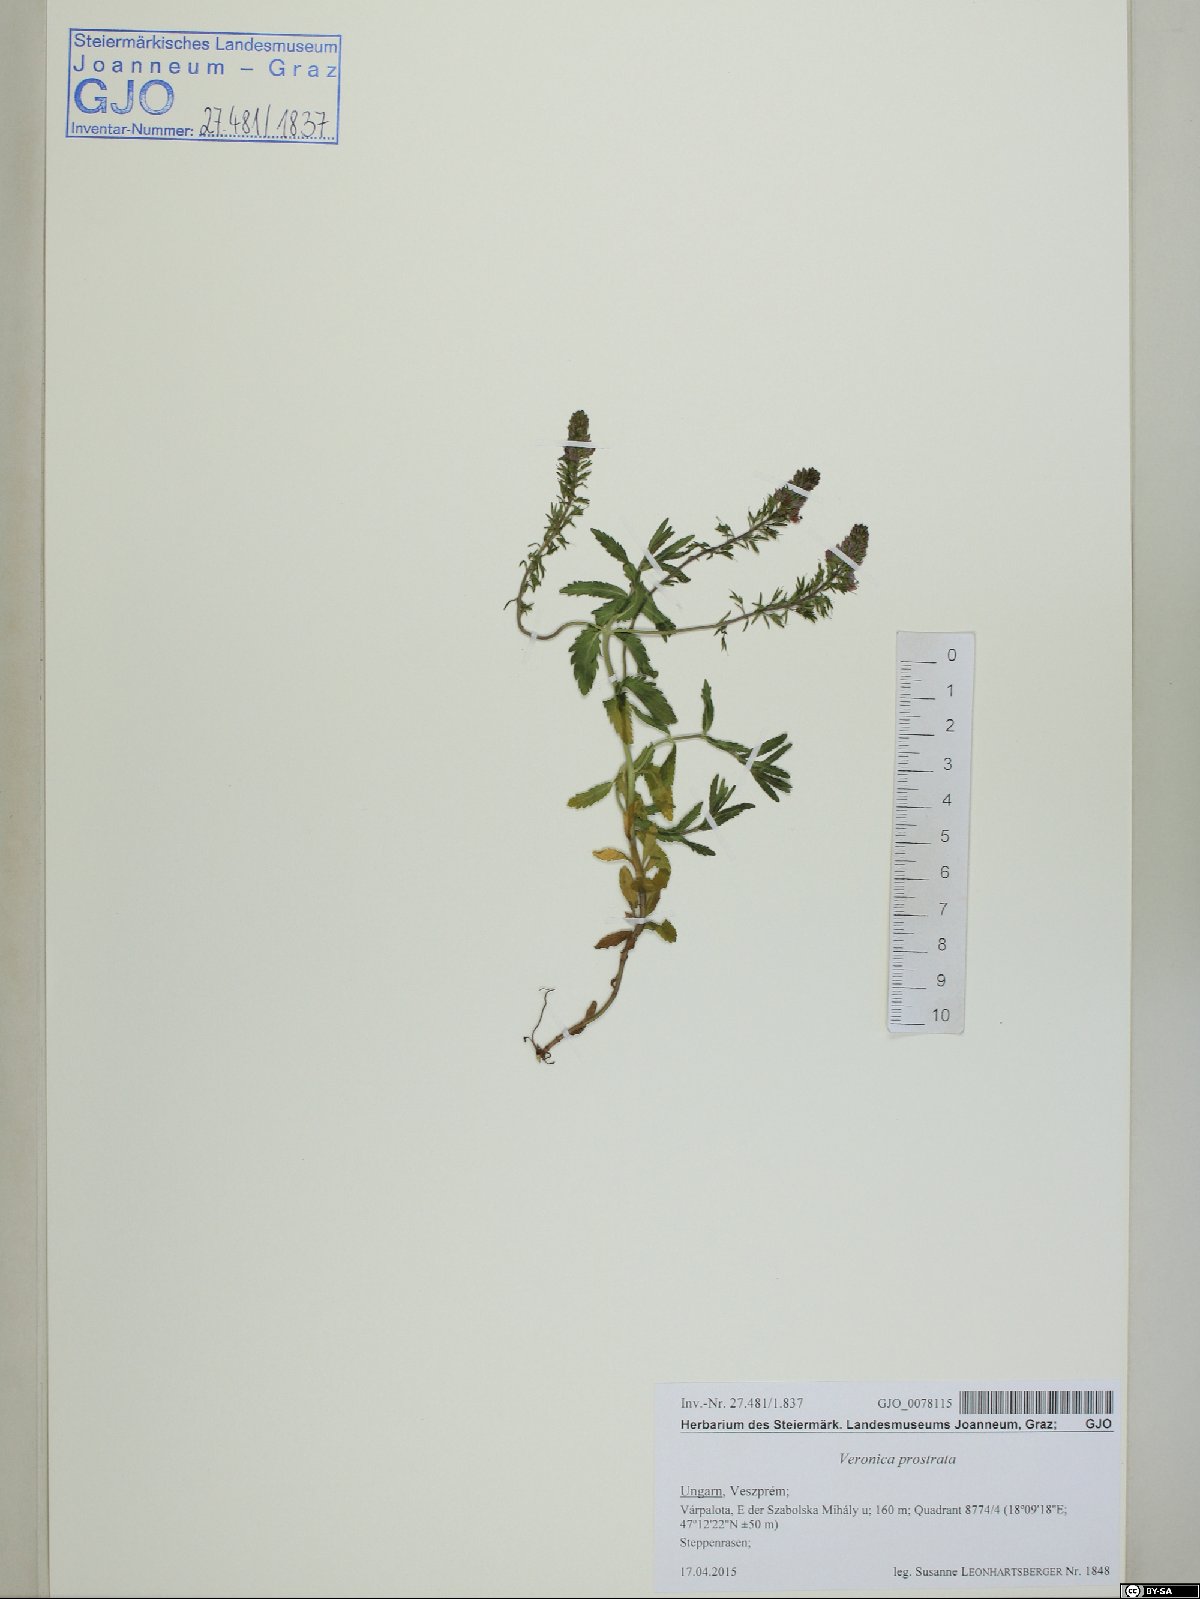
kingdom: Plantae
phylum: Tracheophyta
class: Magnoliopsida
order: Lamiales
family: Plantaginaceae
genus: Veronica
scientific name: Veronica prostrata
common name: Prostrate speedwell
